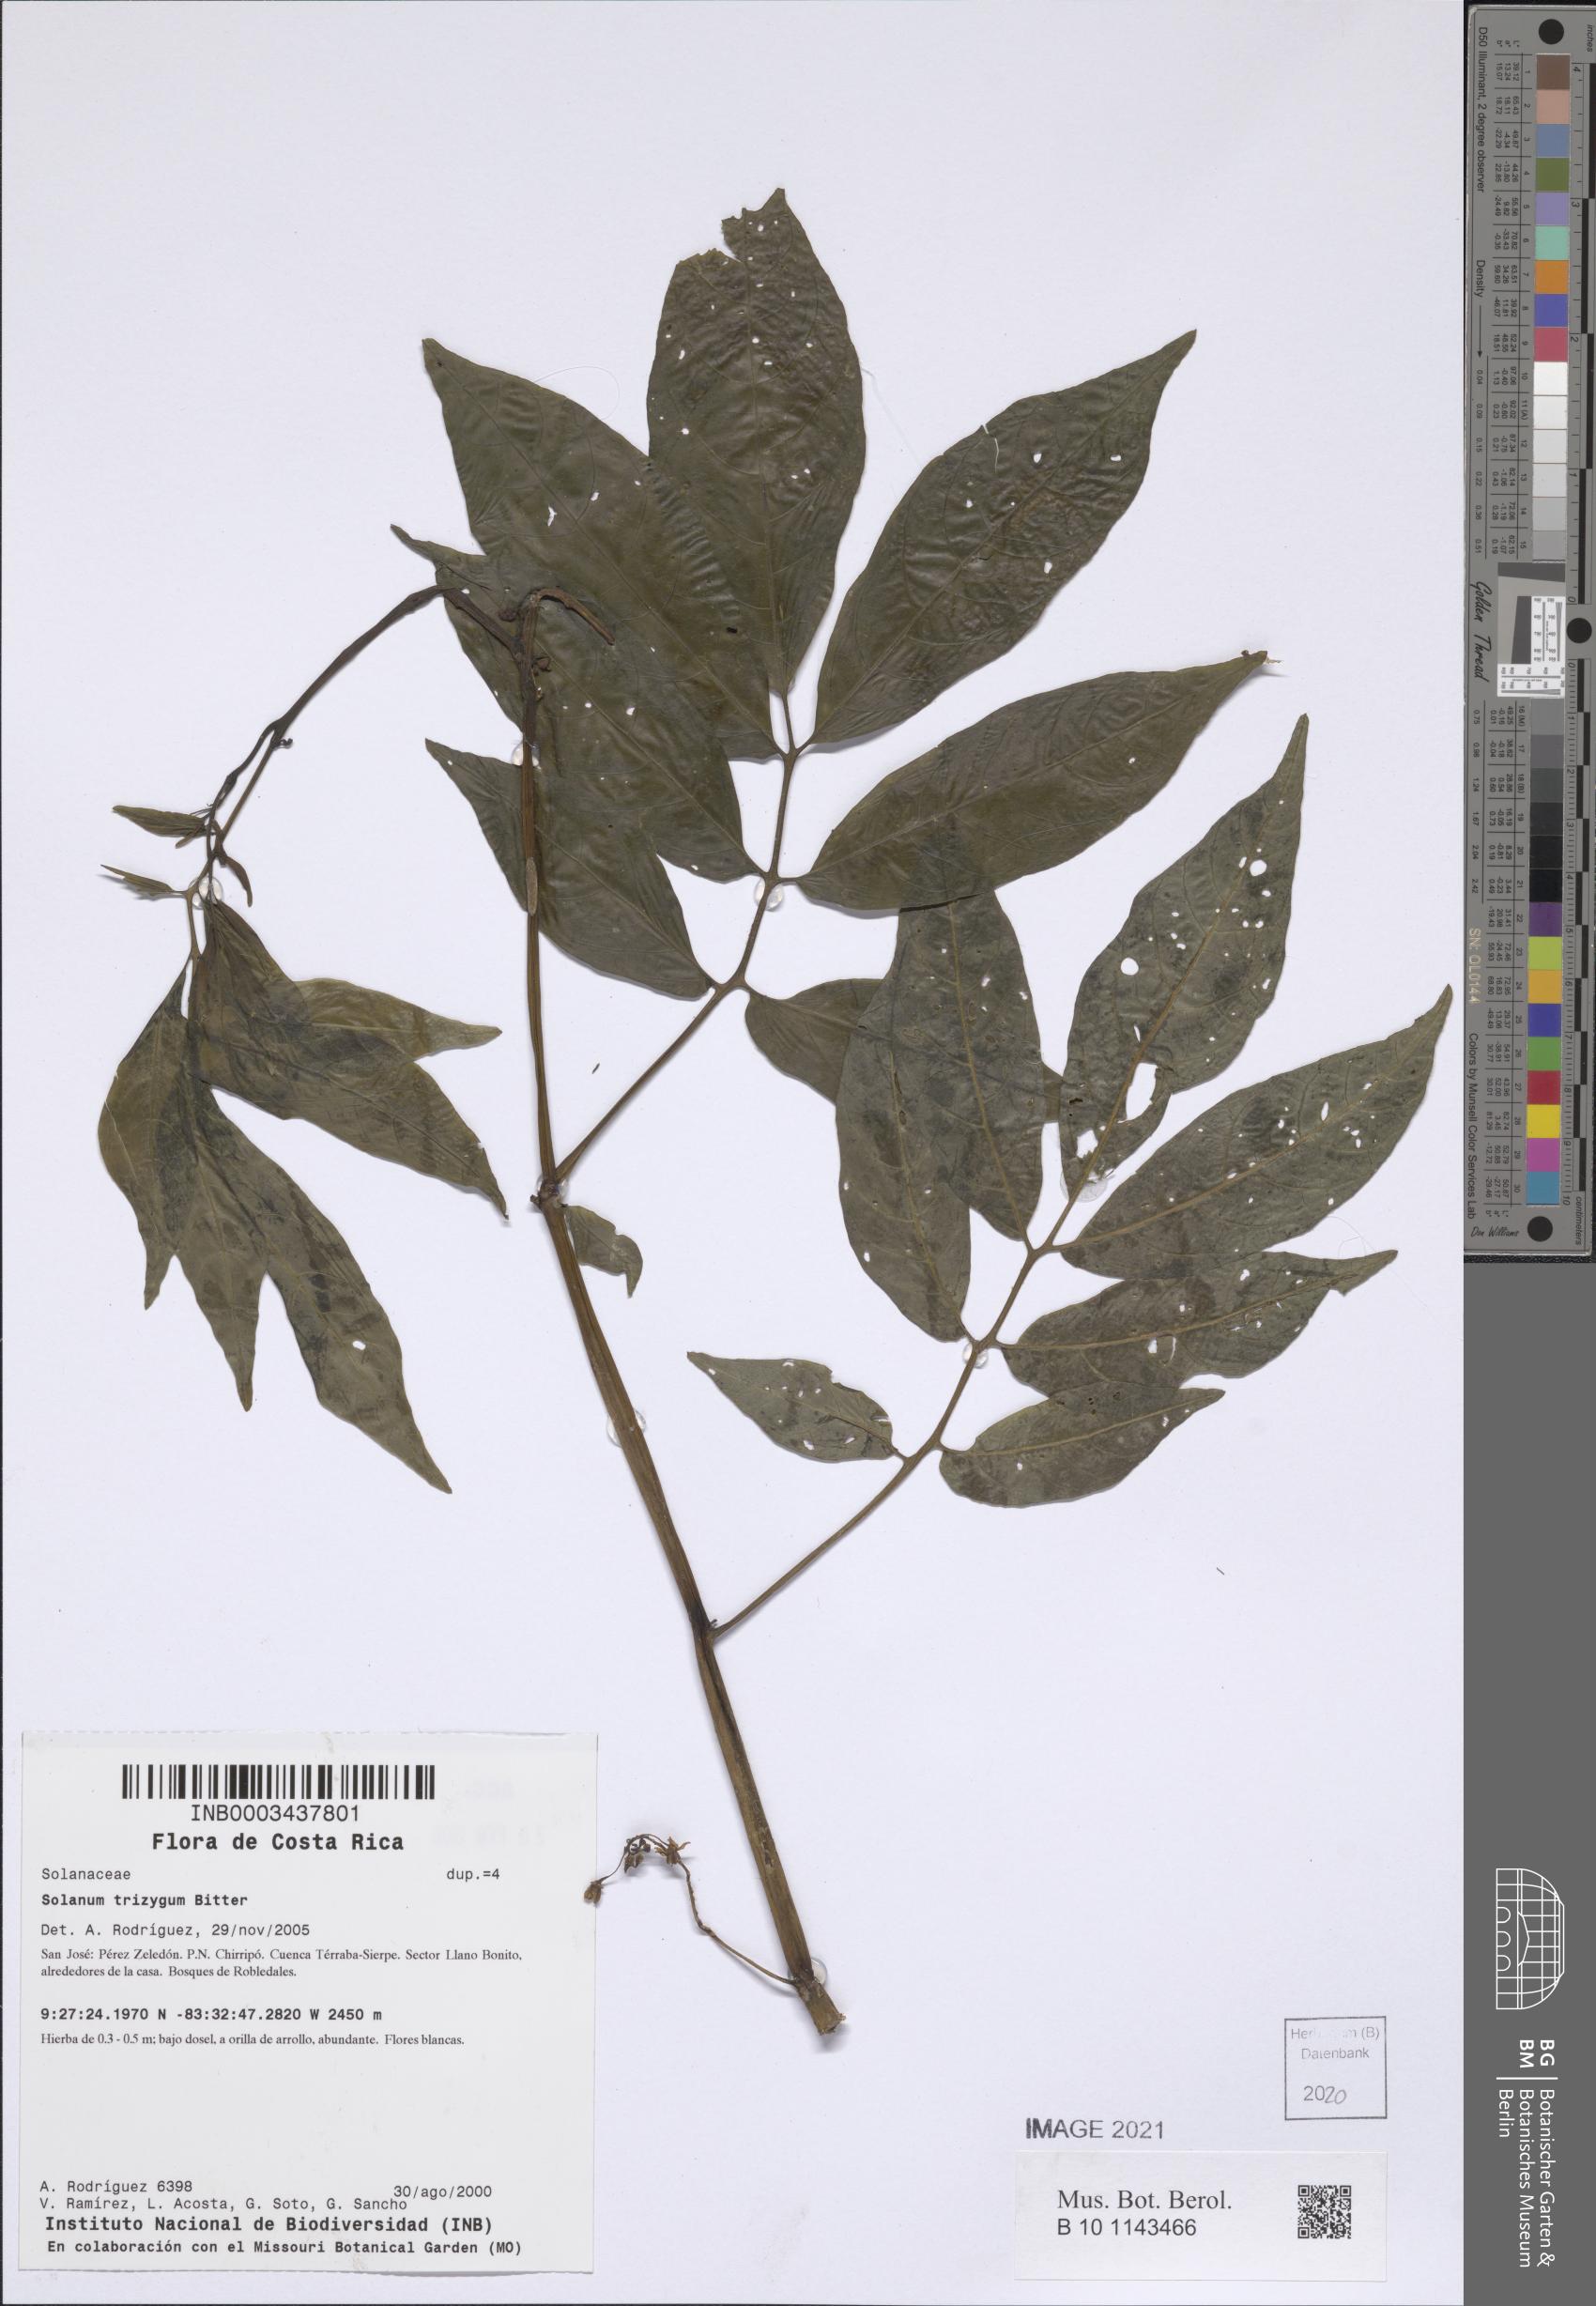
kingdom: Plantae
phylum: Tracheophyta
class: Magnoliopsida
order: Solanales
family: Solanaceae
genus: Solanum
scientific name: Solanum trizygum
